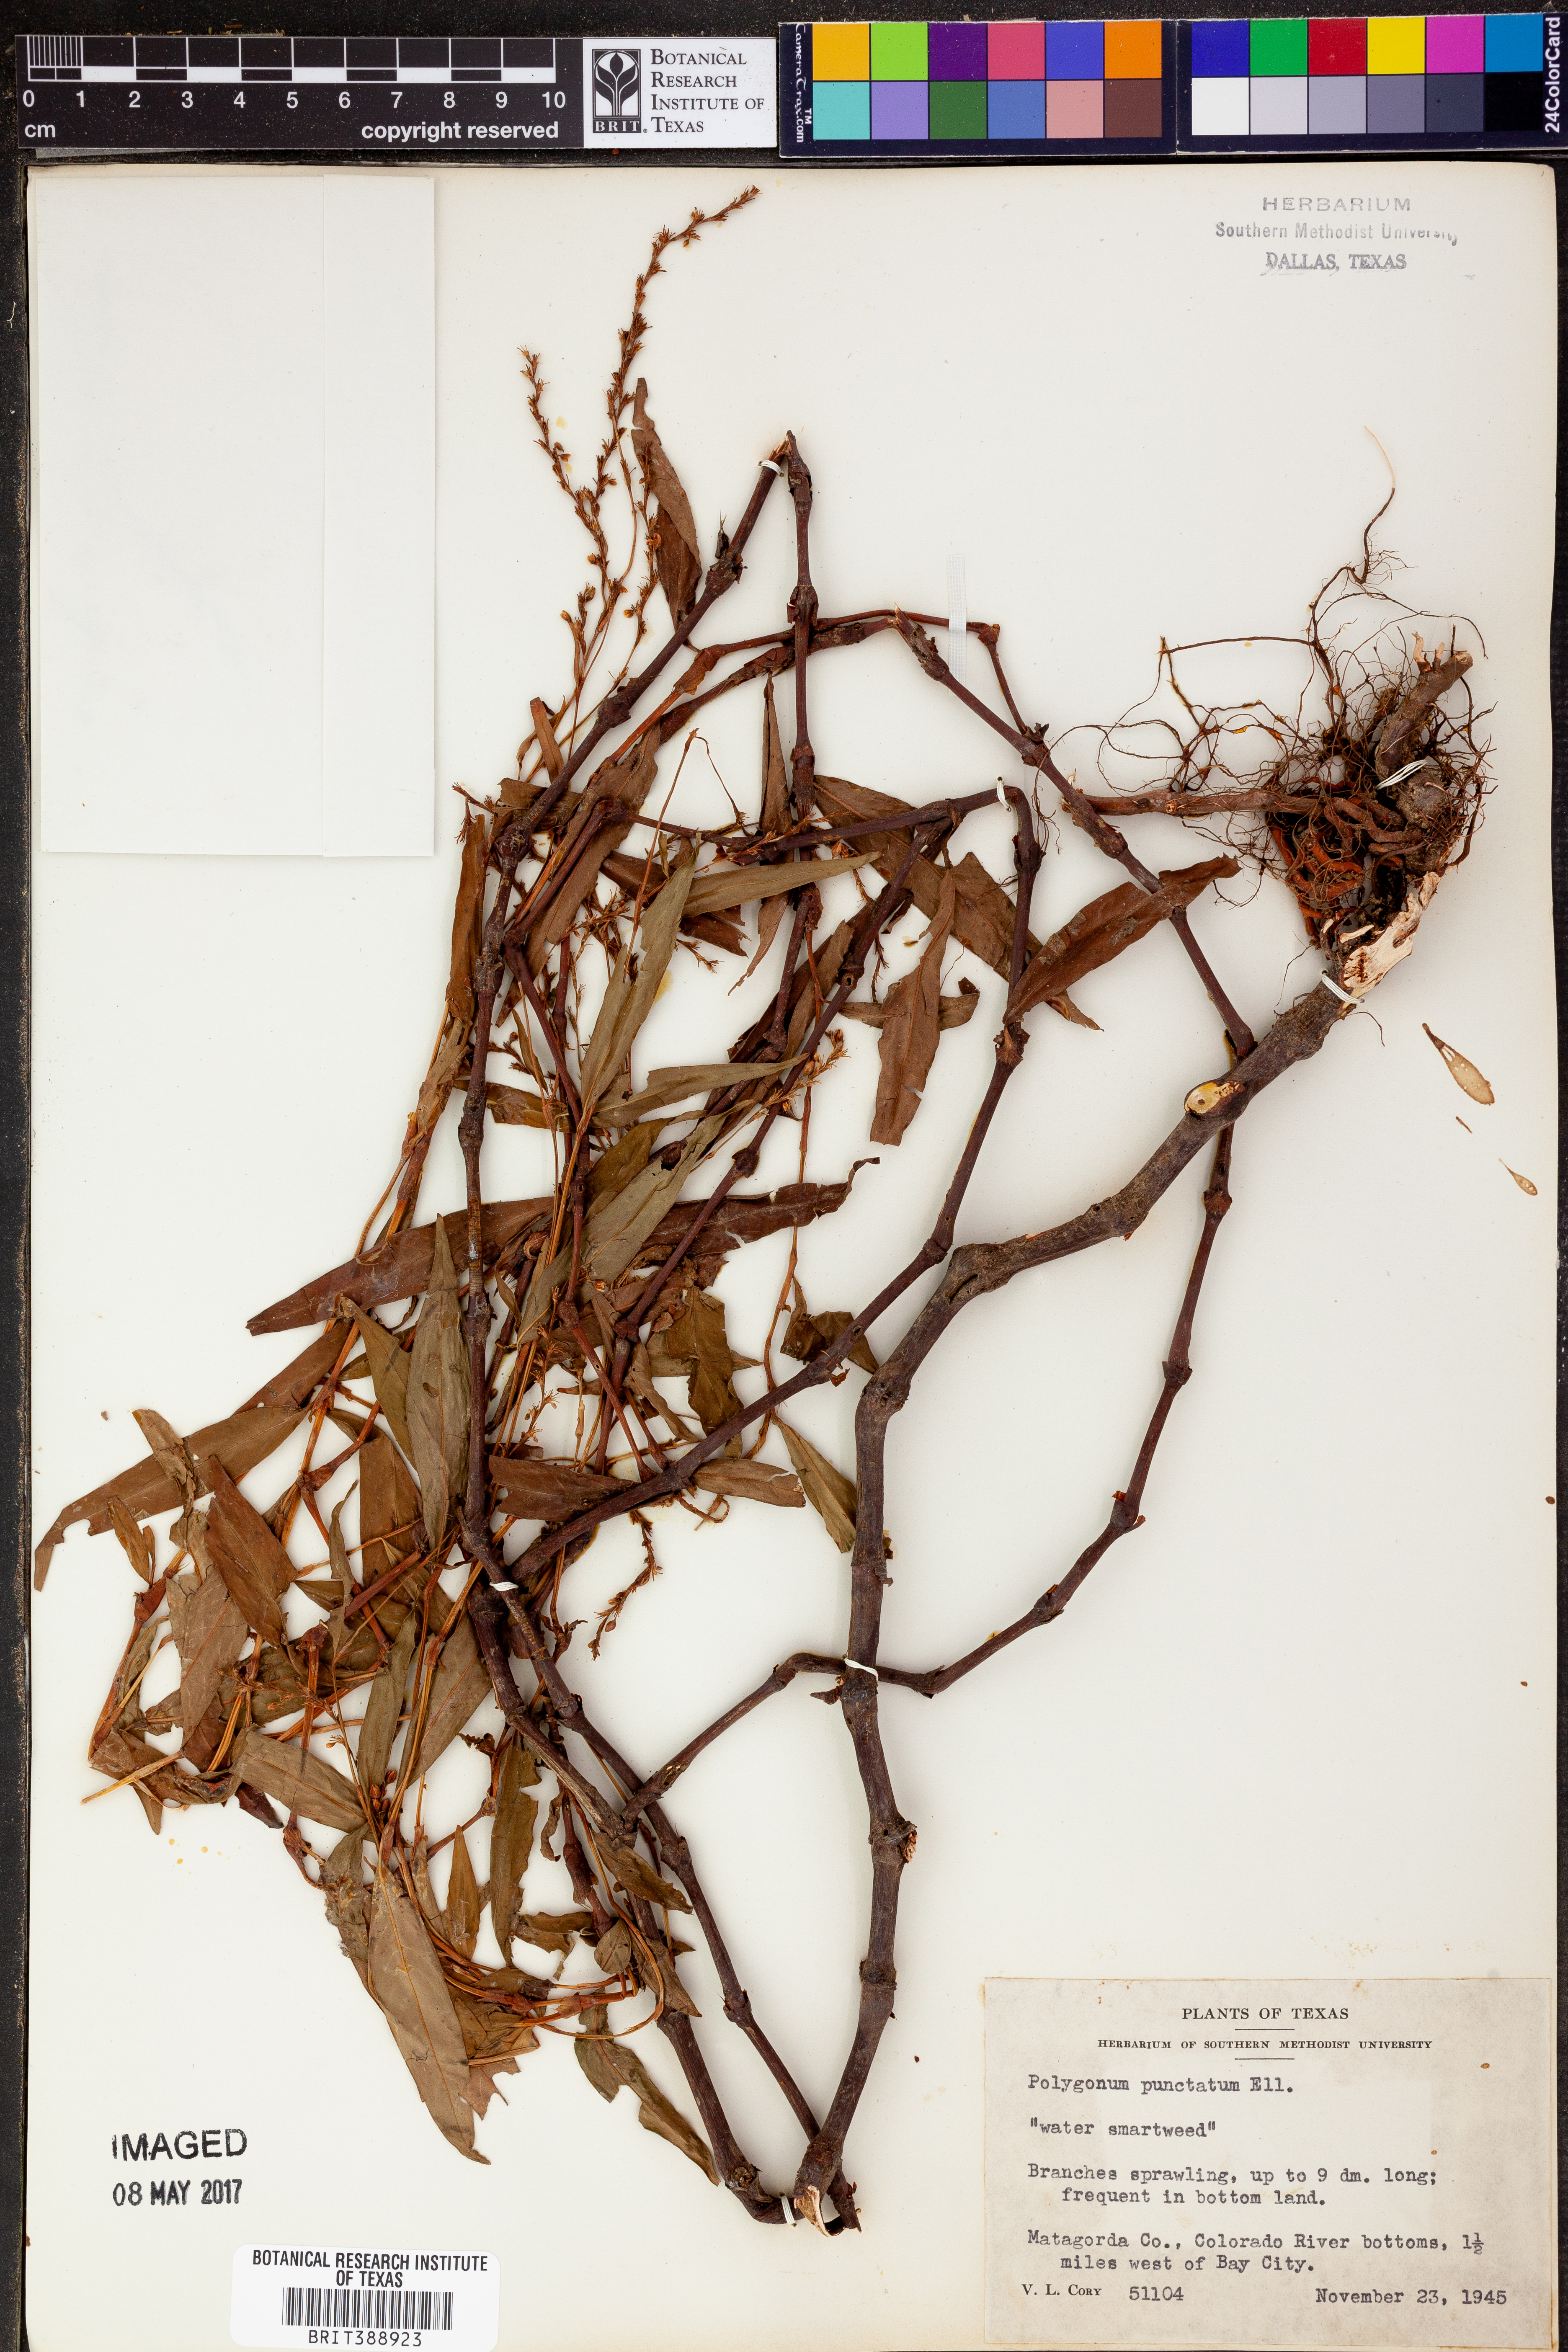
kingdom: Plantae
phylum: Tracheophyta
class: Magnoliopsida
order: Caryophyllales
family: Polygonaceae
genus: Persicaria
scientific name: Persicaria punctata
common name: Dotted smartweed
